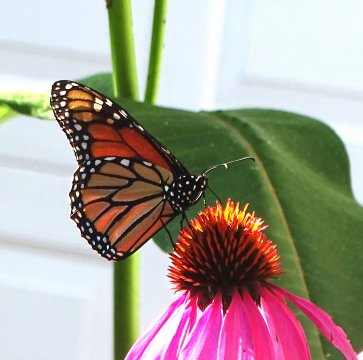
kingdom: Animalia
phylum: Arthropoda
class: Insecta
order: Lepidoptera
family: Nymphalidae
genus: Danaus
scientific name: Danaus plexippus
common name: Monarch
